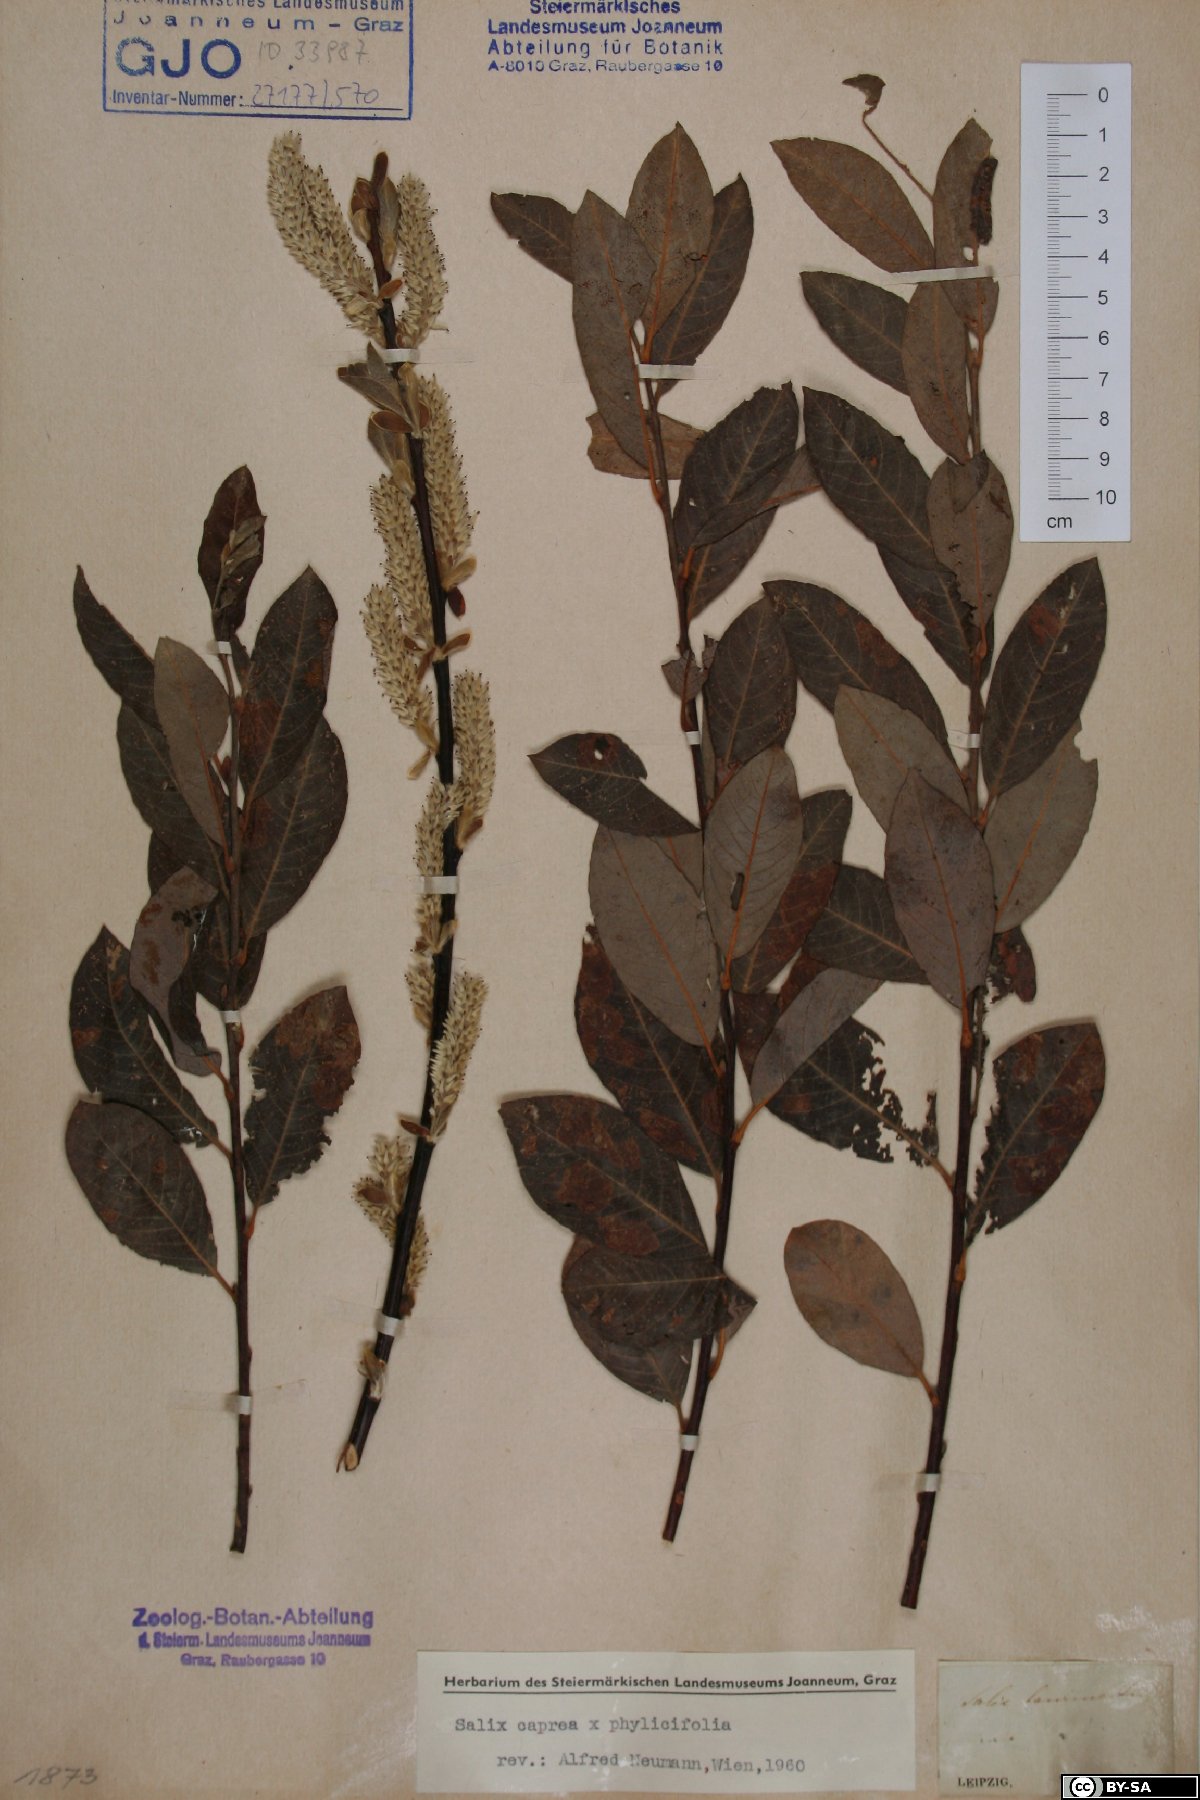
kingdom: Plantae
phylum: Tracheophyta
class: Magnoliopsida
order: Malpighiales
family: Salicaceae
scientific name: Salicaceae
